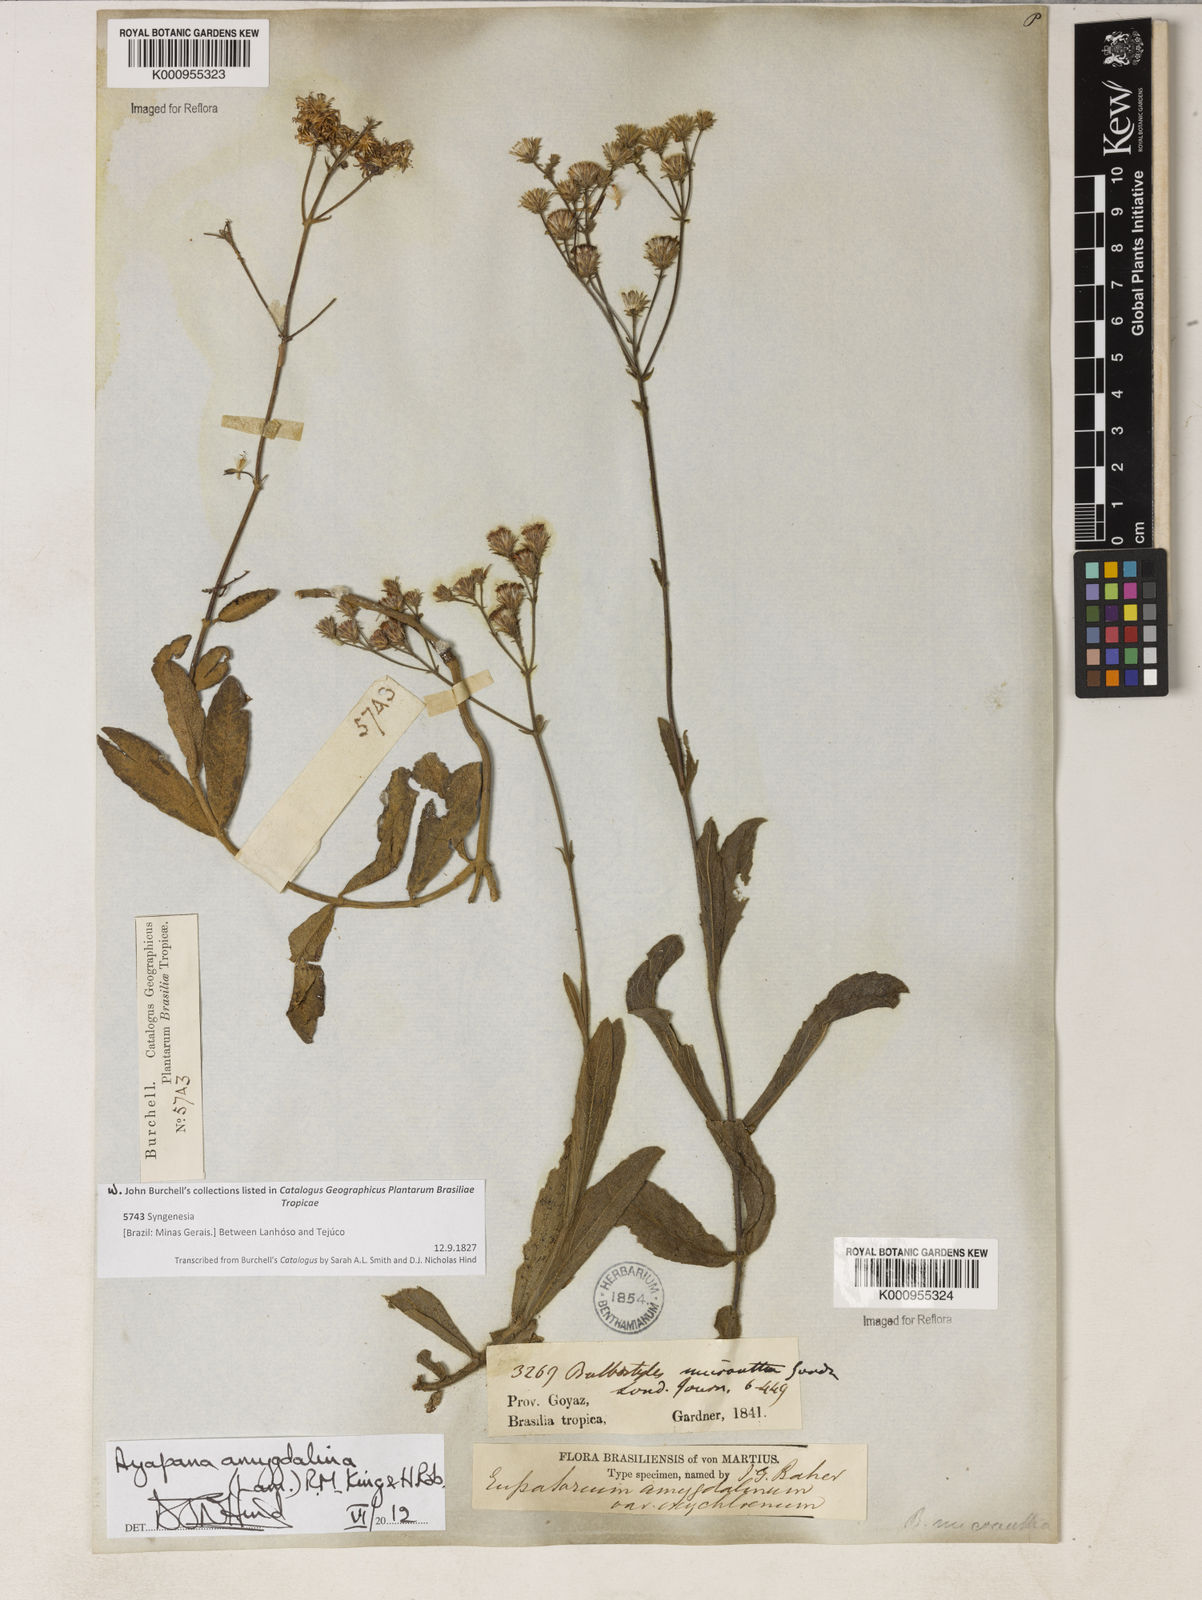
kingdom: Plantae
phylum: Tracheophyta
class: Magnoliopsida
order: Asterales
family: Asteraceae
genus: Ayapana
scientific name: Ayapana amygdalina
